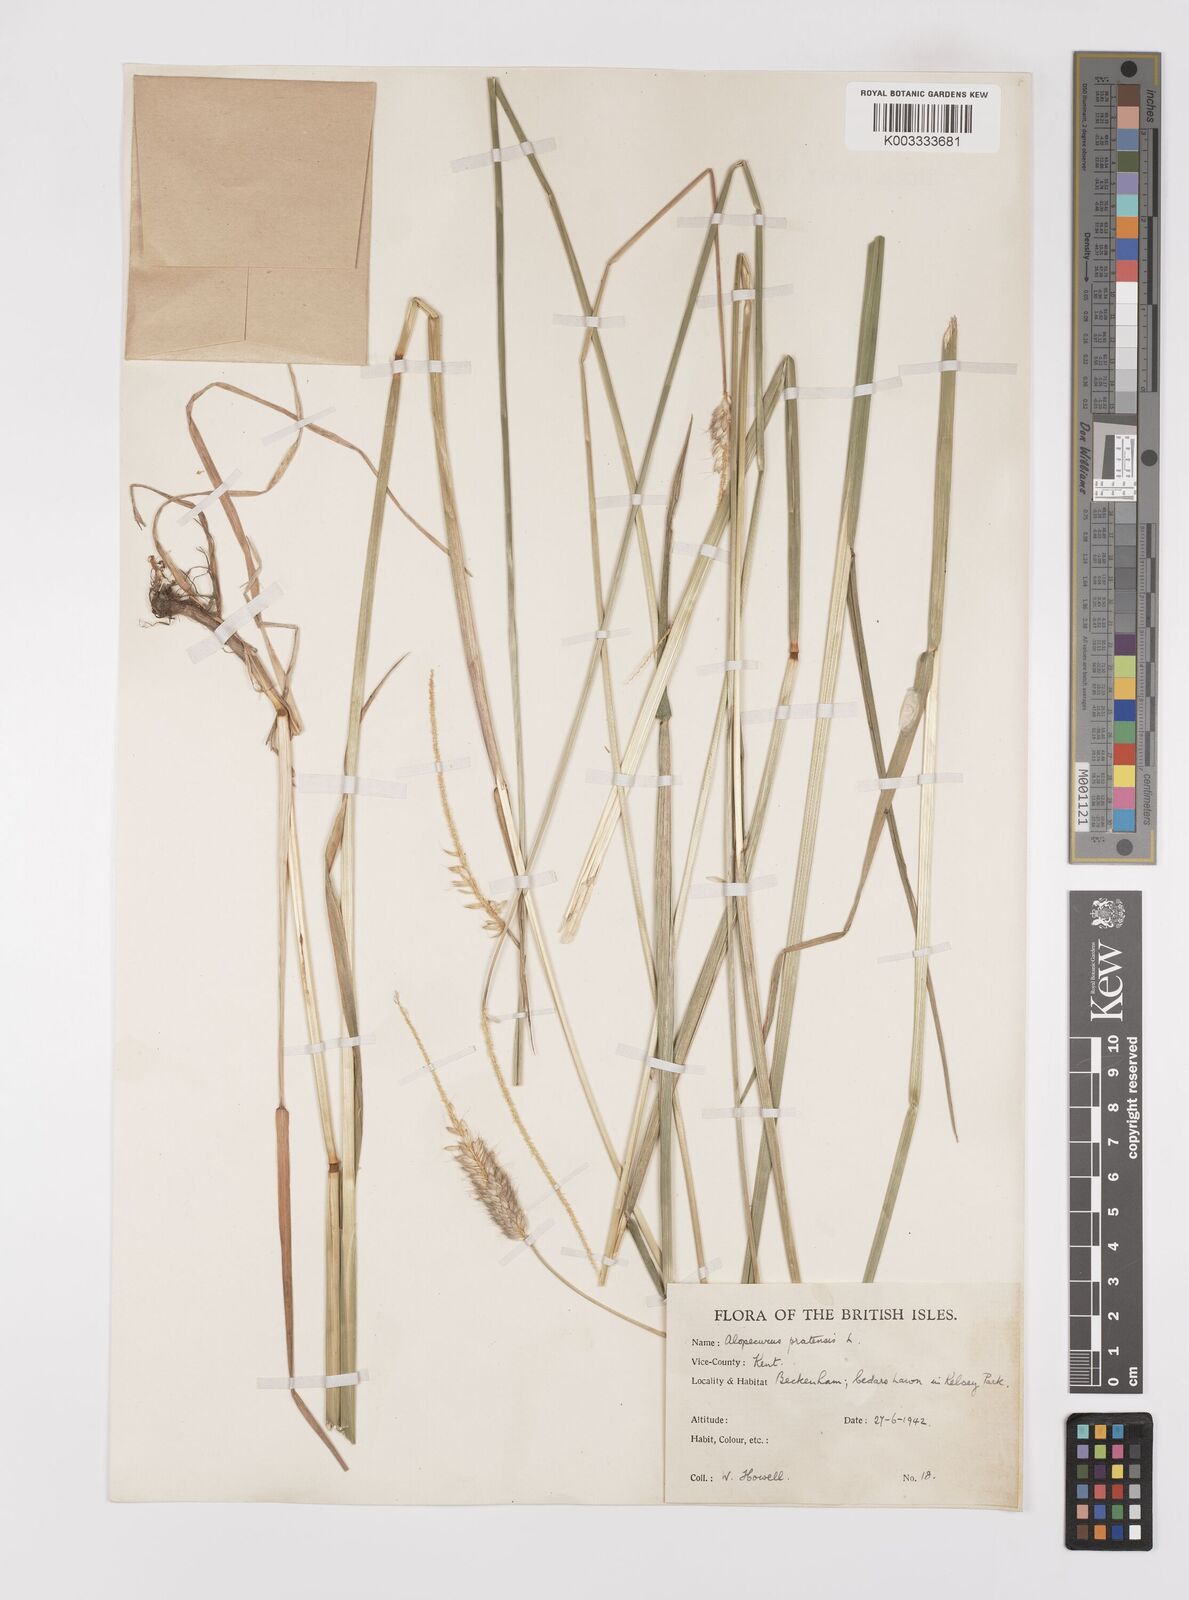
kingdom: Plantae
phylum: Tracheophyta
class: Liliopsida
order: Poales
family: Poaceae
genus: Alopecurus
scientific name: Alopecurus pratensis
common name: Meadow foxtail
